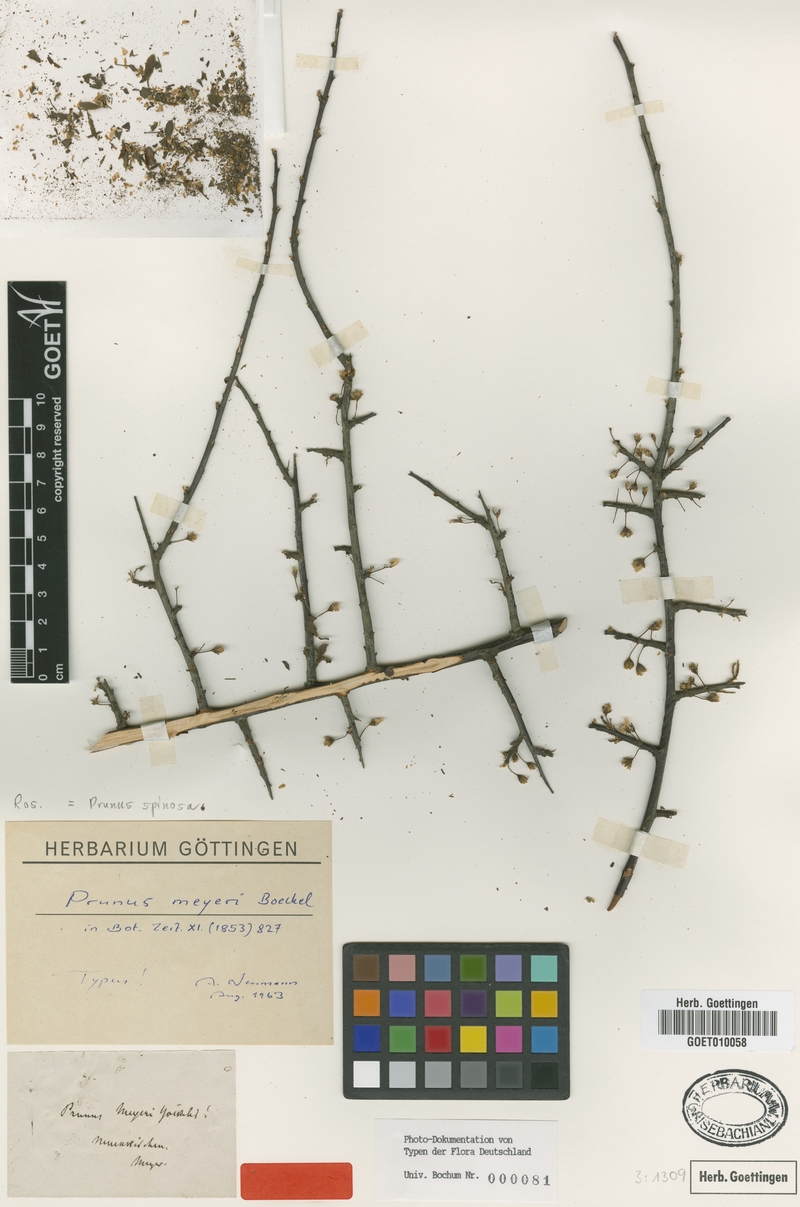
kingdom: Plantae
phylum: Tracheophyta
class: Magnoliopsida
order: Rosales
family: Rosaceae
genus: Prunus
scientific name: Prunus spinosa
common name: Blackthorn
